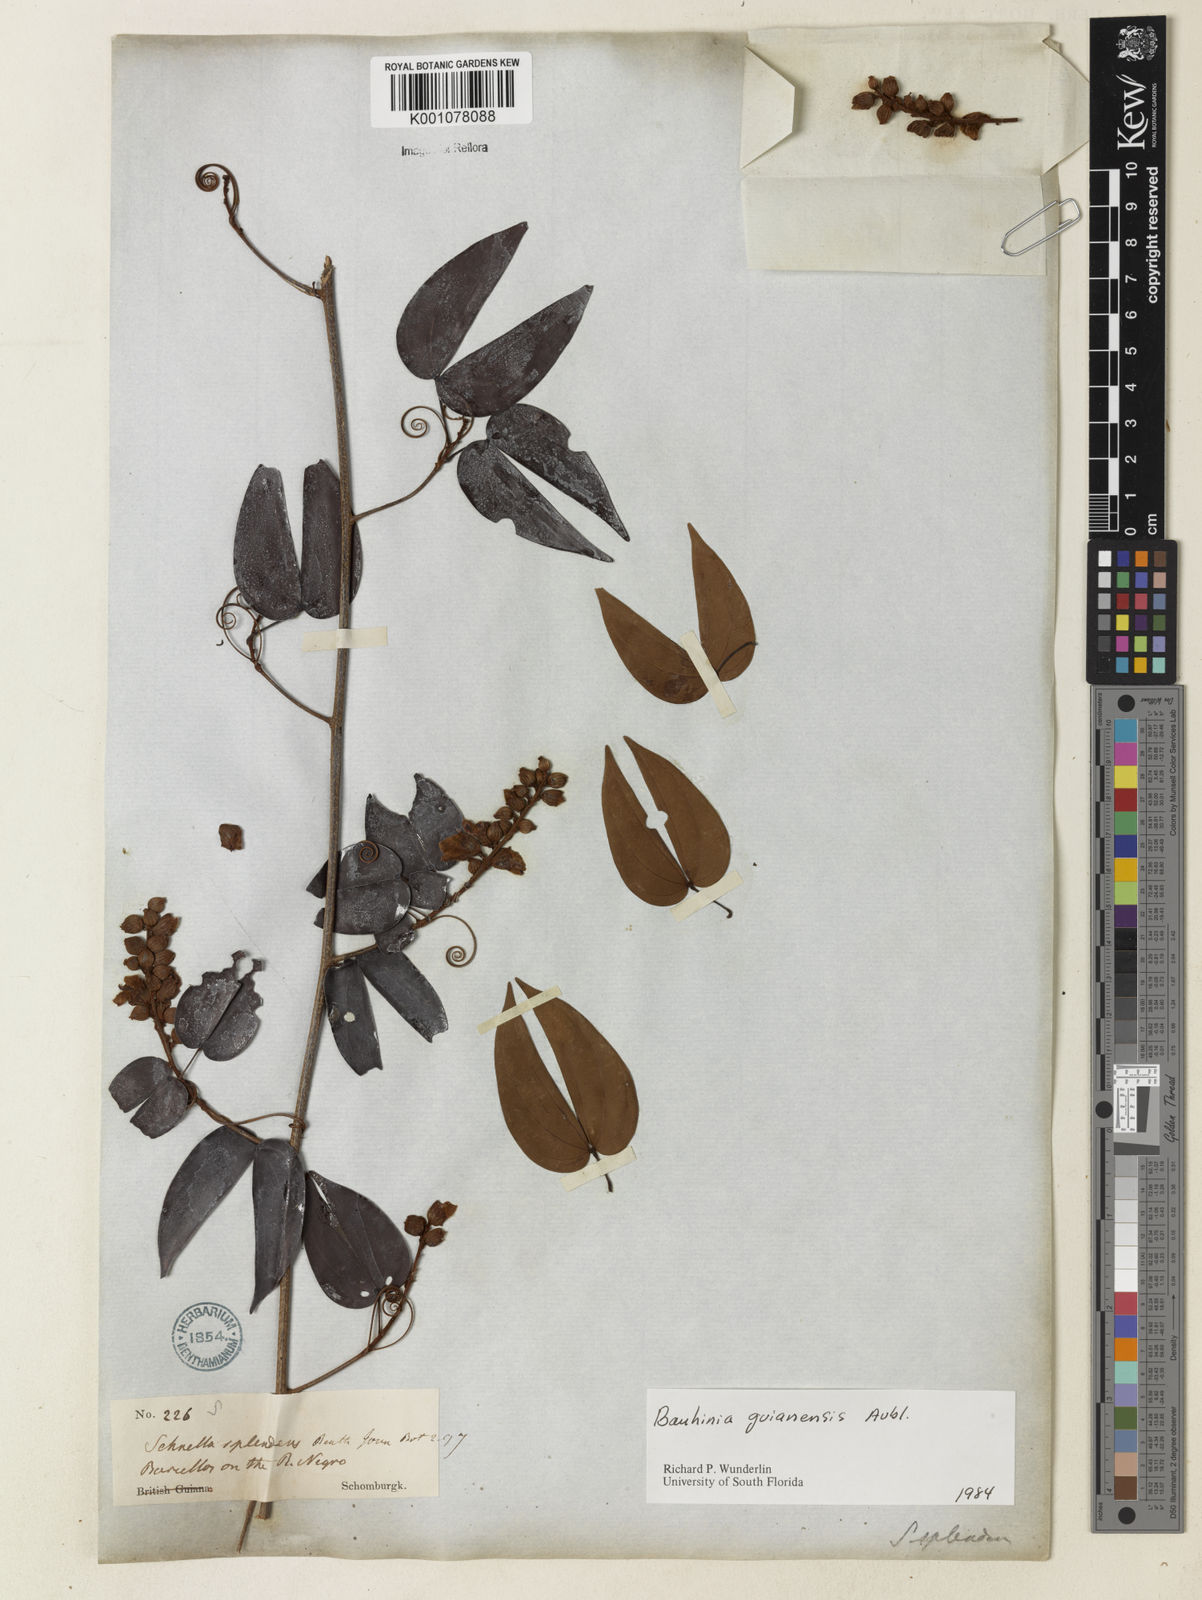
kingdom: Plantae
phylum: Tracheophyta
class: Magnoliopsida
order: Fabales
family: Fabaceae
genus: Schnella
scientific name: Schnella guianensis
